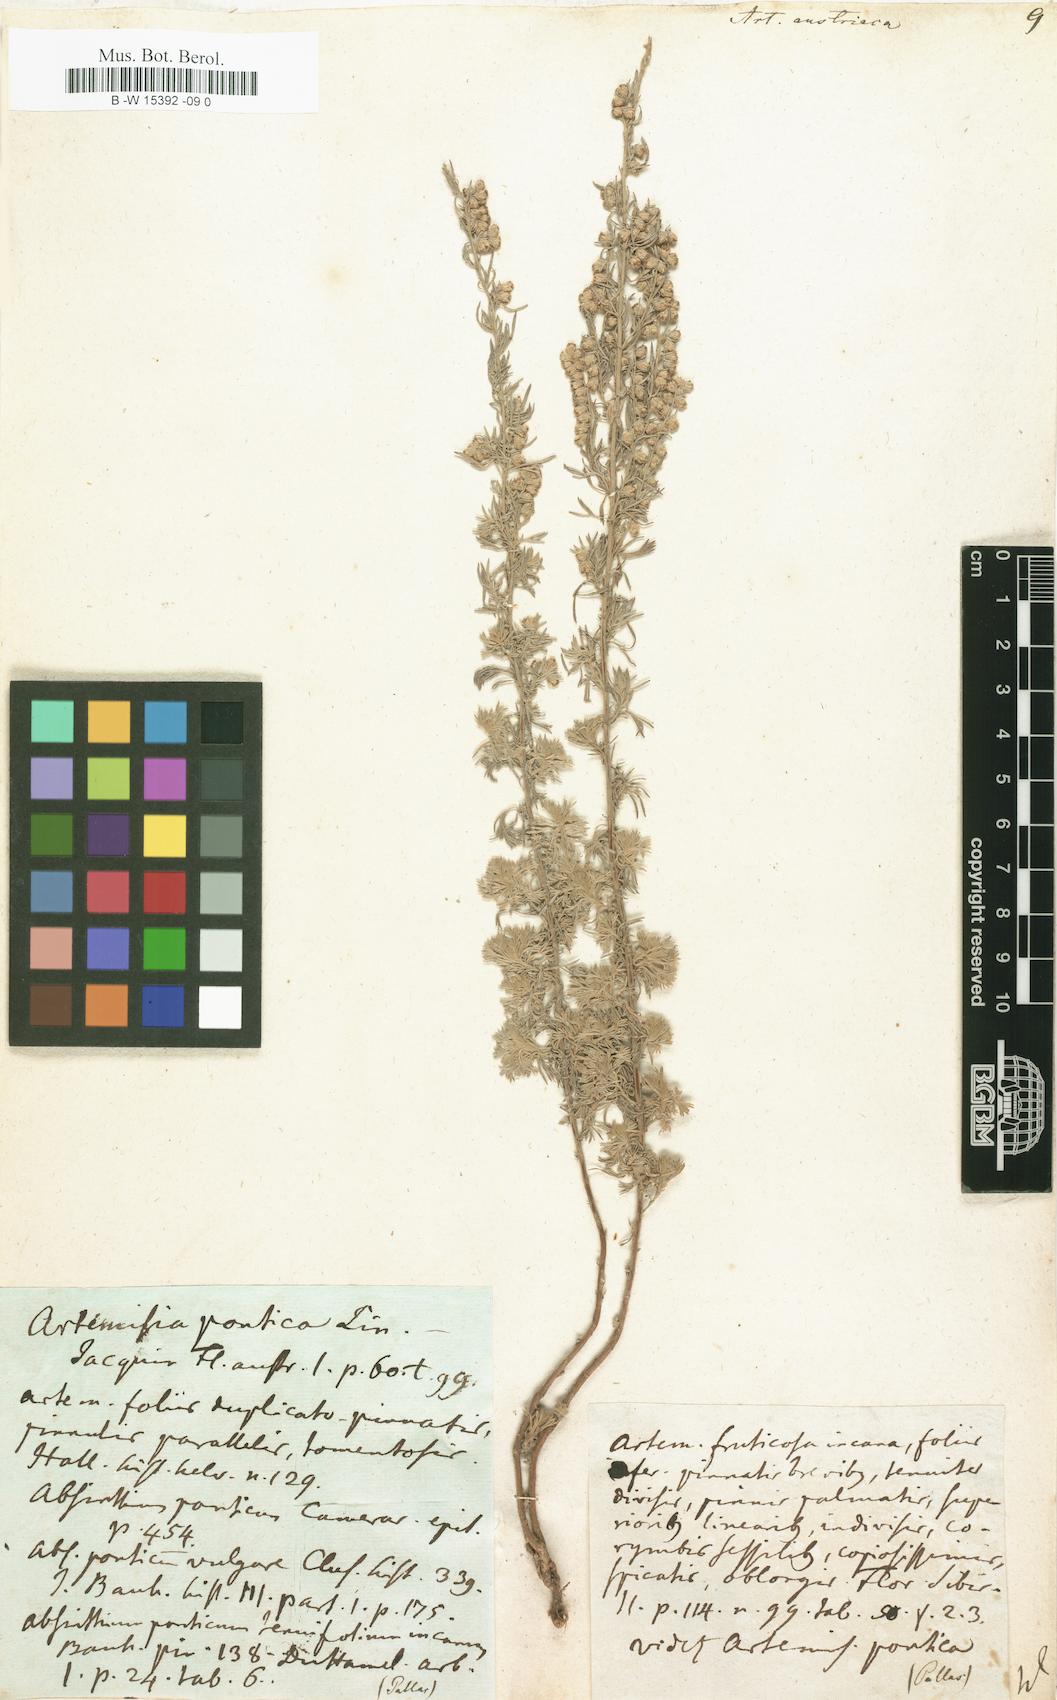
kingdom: Plantae
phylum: Tracheophyta
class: Magnoliopsida
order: Asterales
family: Asteraceae
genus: Artemisia
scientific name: Artemisia austriaca
